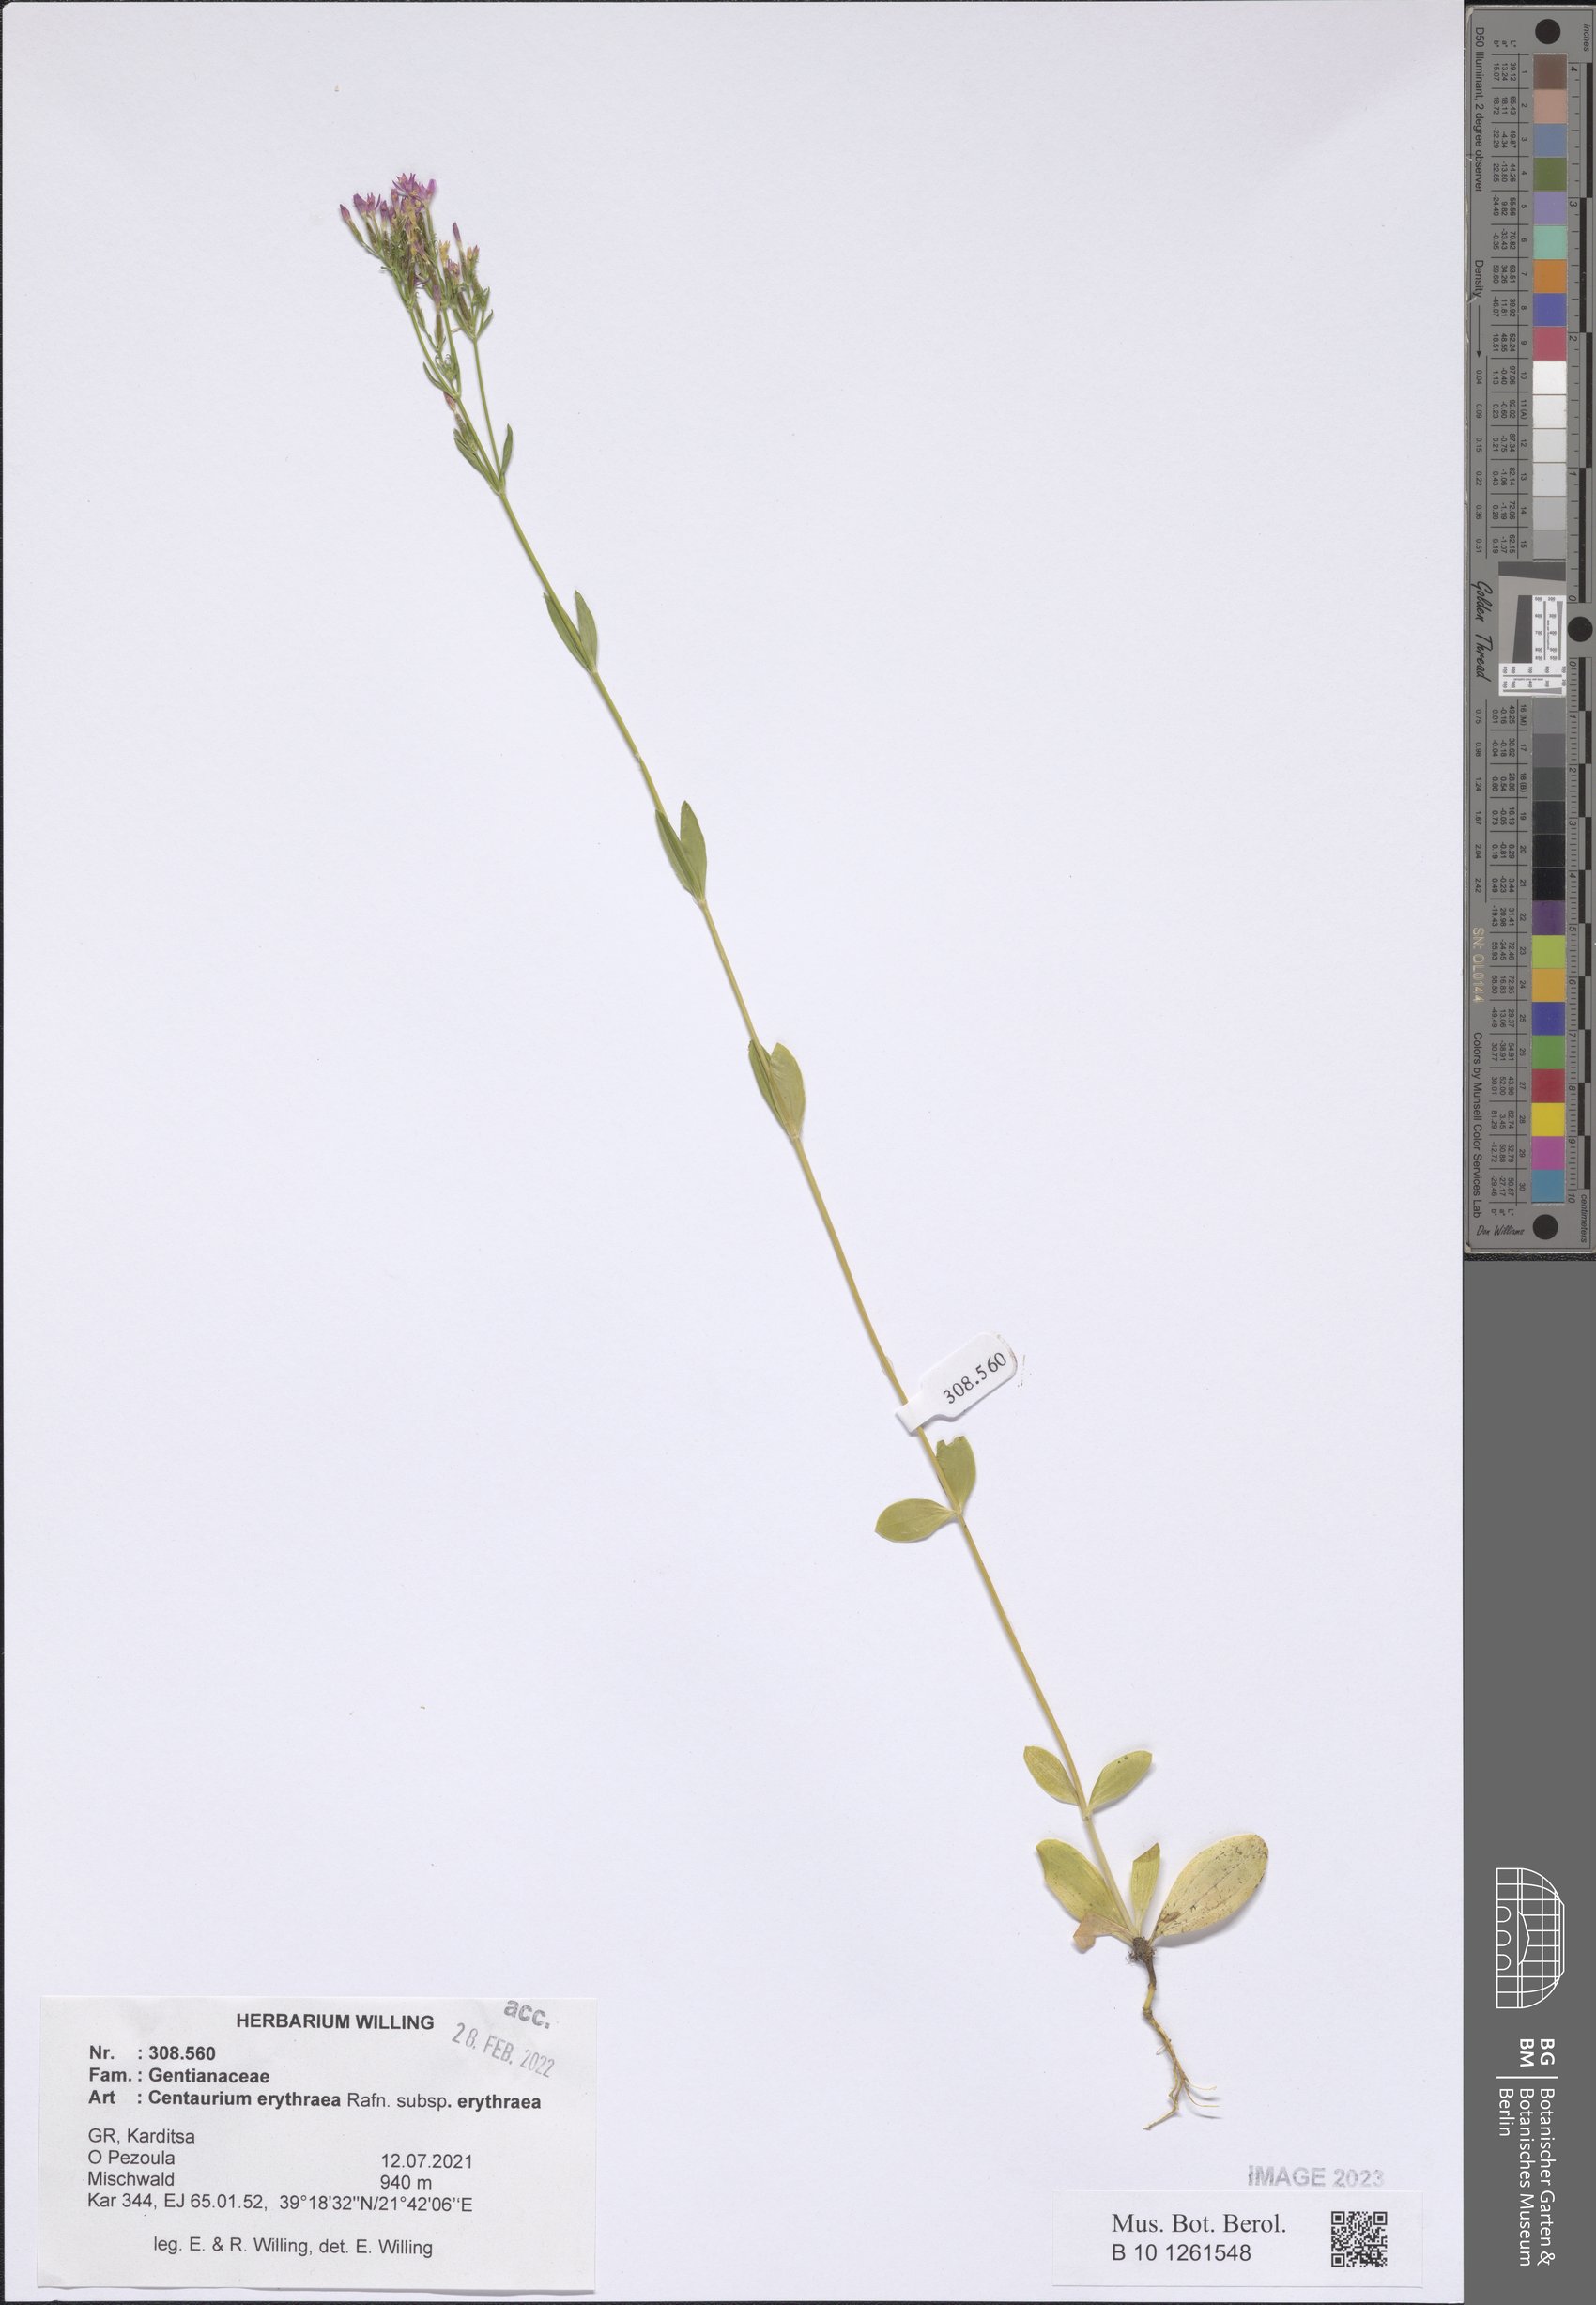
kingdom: Plantae
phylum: Tracheophyta
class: Magnoliopsida
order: Gentianales
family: Gentianaceae
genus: Centaurium
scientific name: Centaurium erythraea
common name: Common centaury
